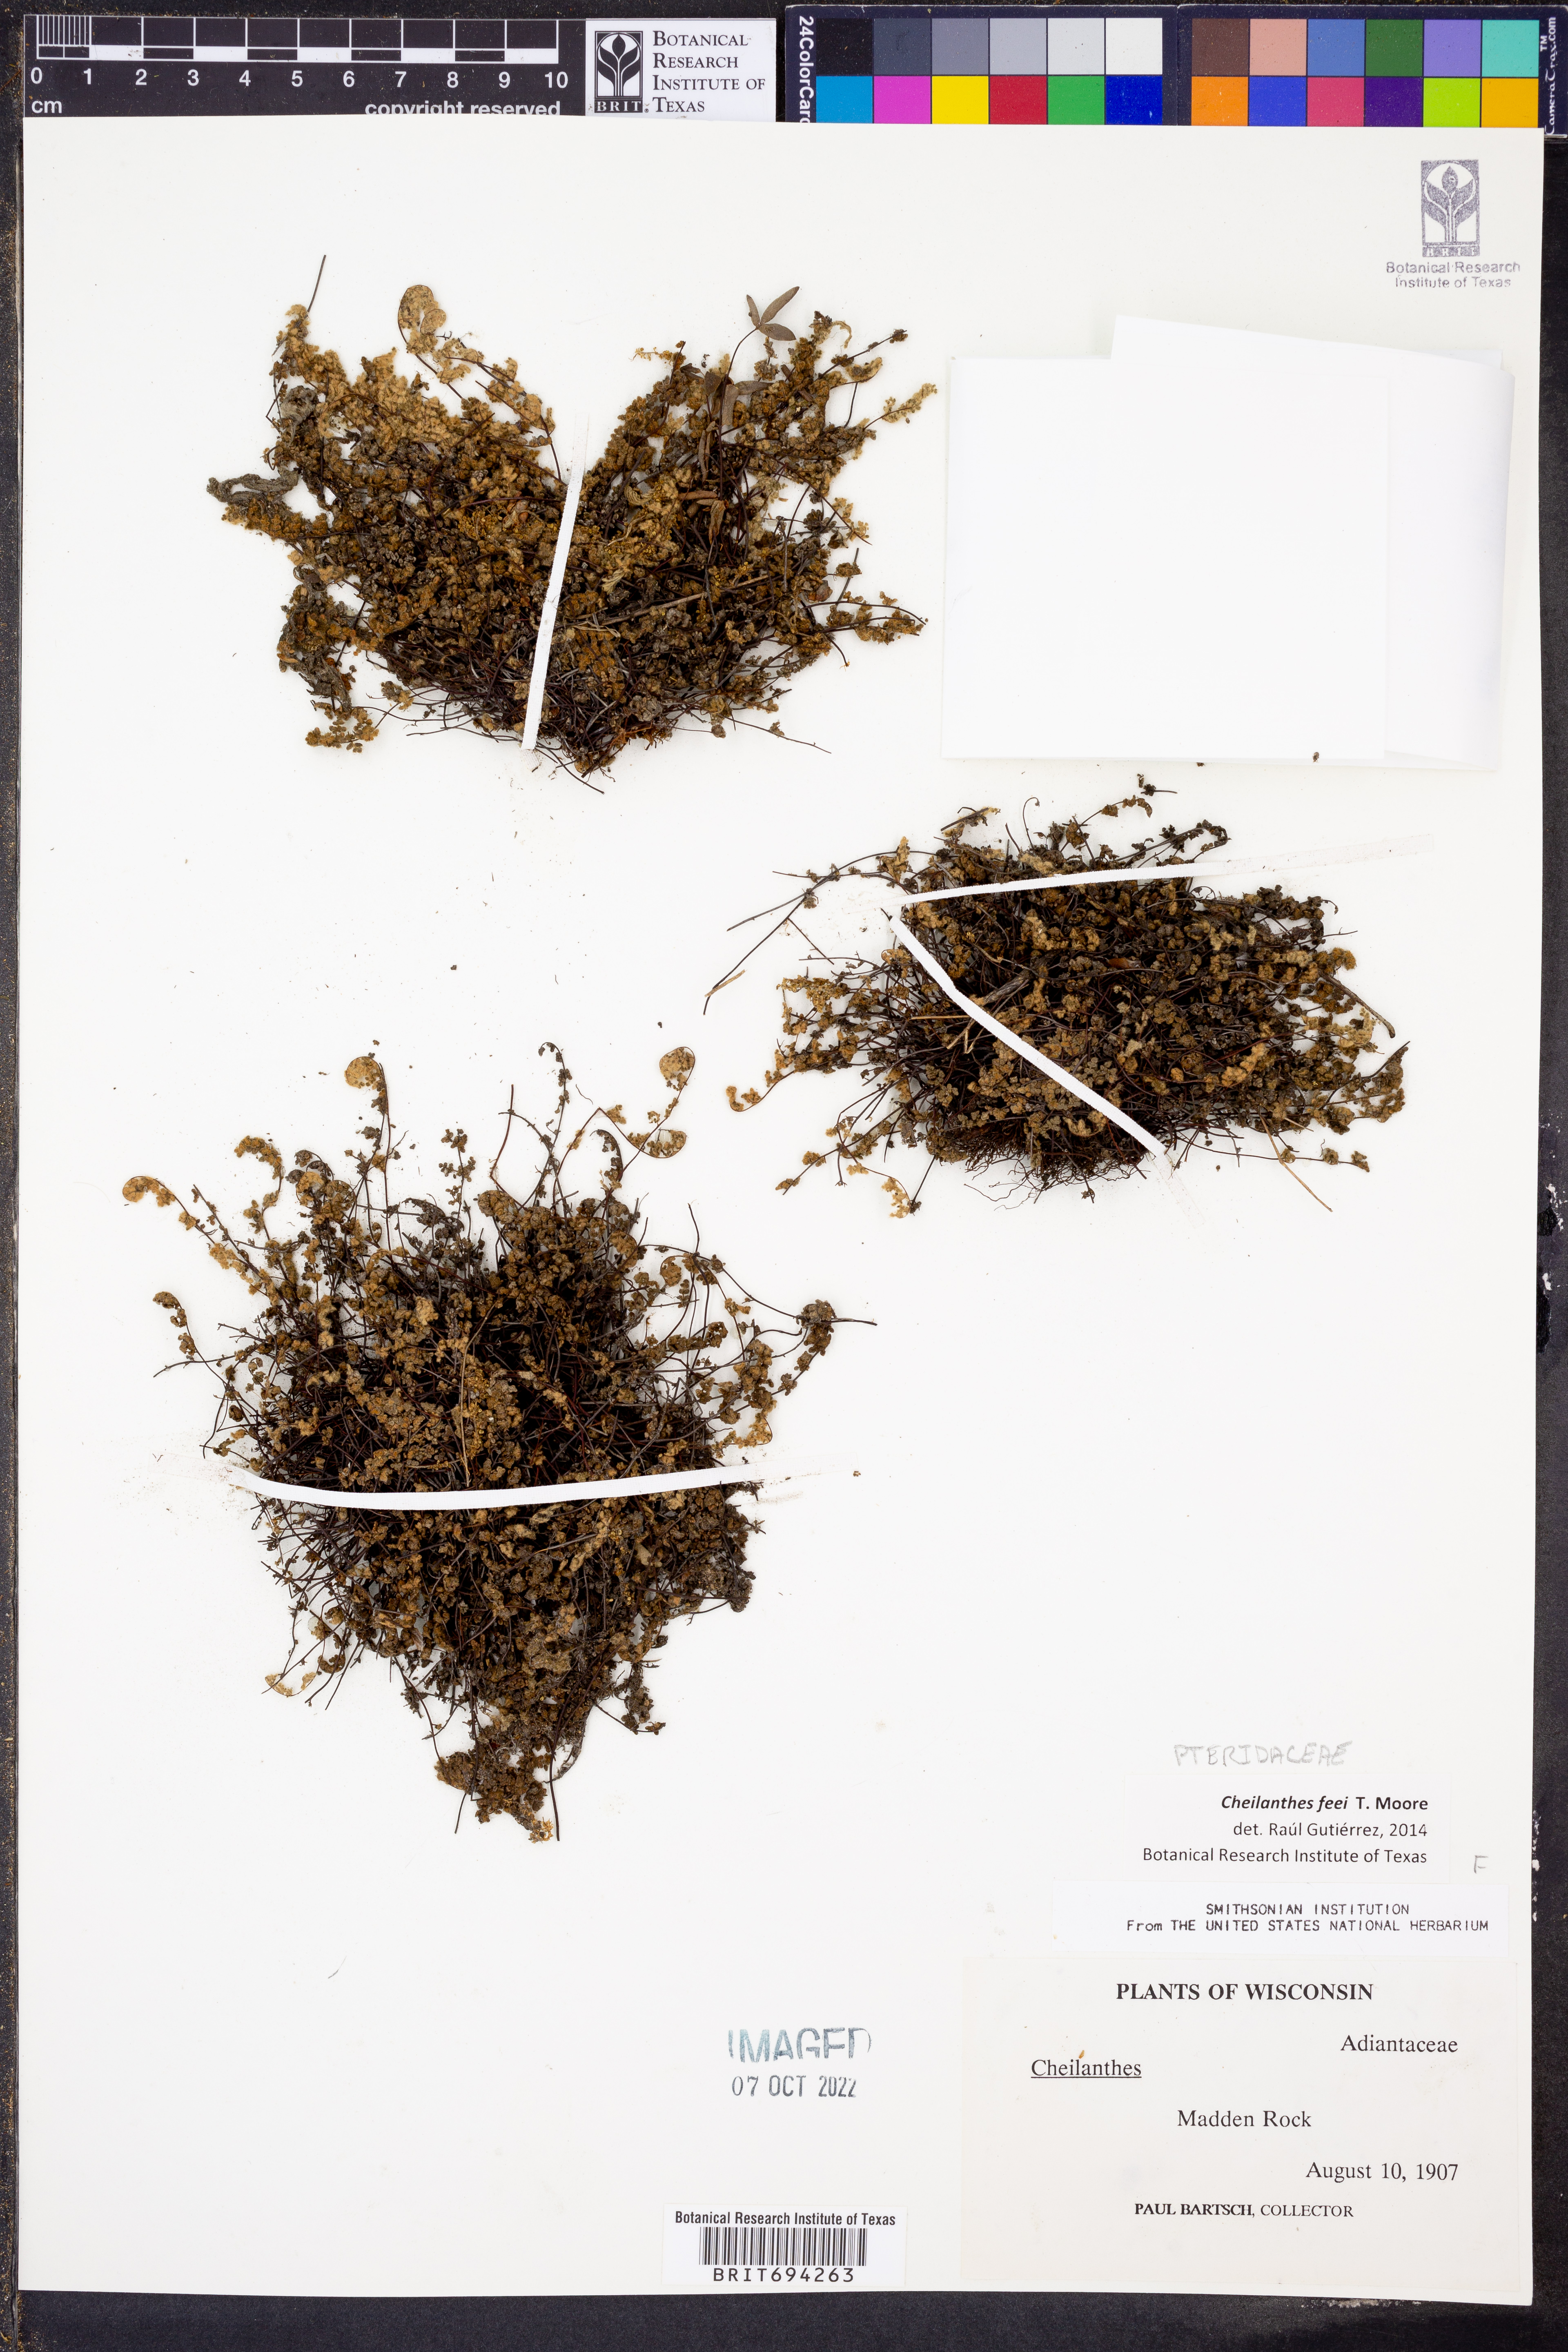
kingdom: Plantae
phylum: Tracheophyta
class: Polypodiopsida
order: Polypodiales
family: Pteridaceae
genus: Myriopteris
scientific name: Myriopteris gracilis
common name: Fee's lip fern
